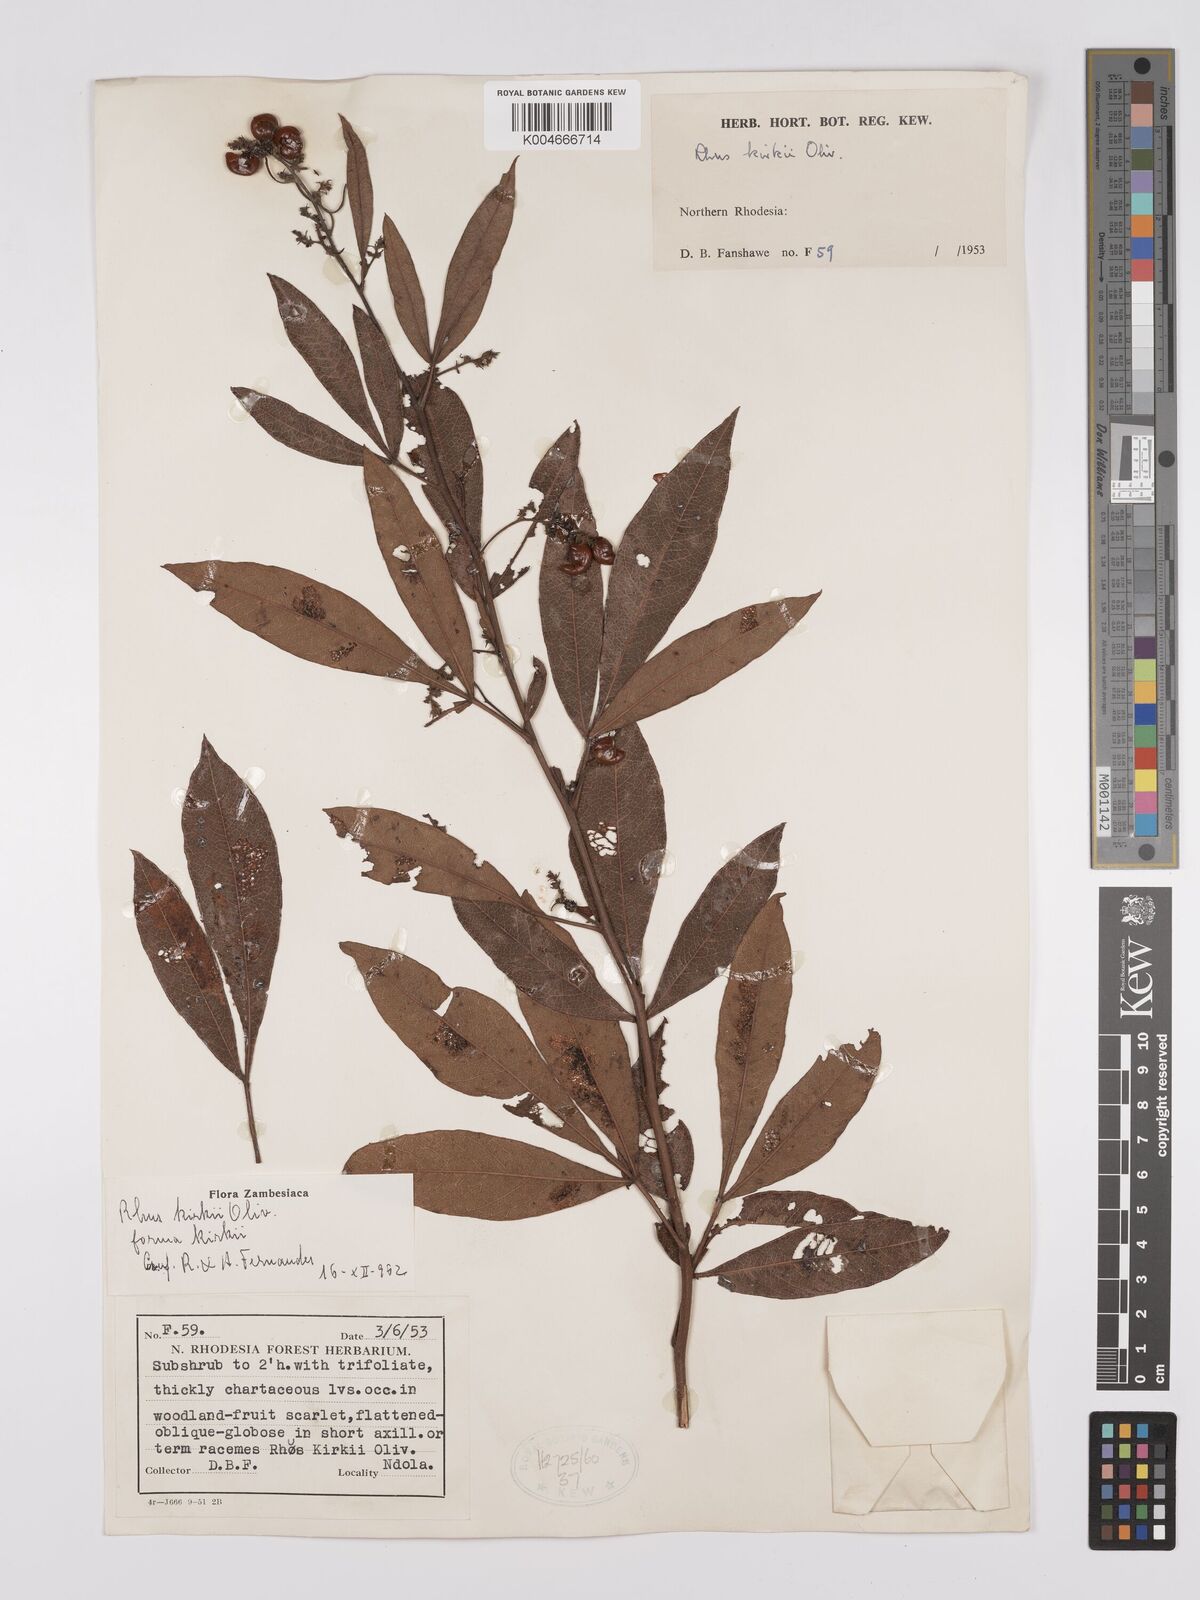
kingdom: Plantae
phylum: Tracheophyta
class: Magnoliopsida
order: Sapindales
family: Anacardiaceae
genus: Searsia
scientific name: Searsia kirkii
